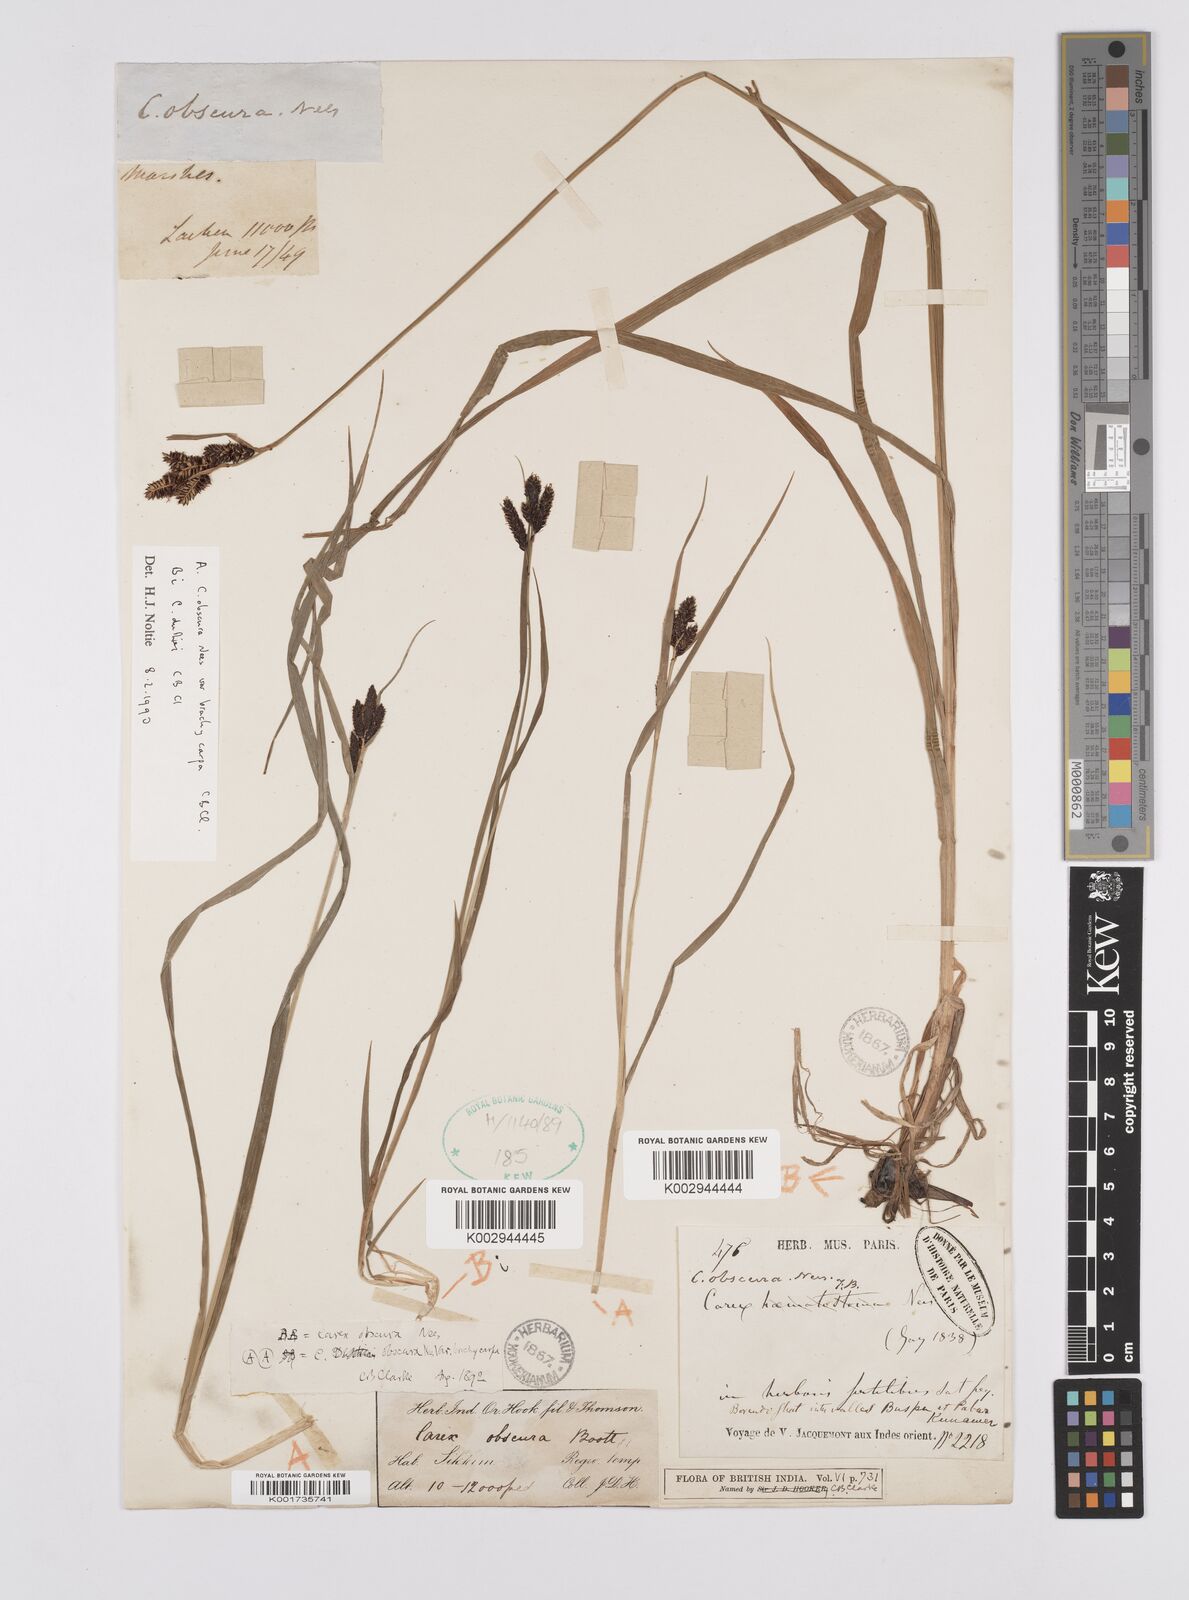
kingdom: Plantae
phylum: Tracheophyta
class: Liliopsida
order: Poales
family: Cyperaceae
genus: Carex
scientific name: Carex obscura
